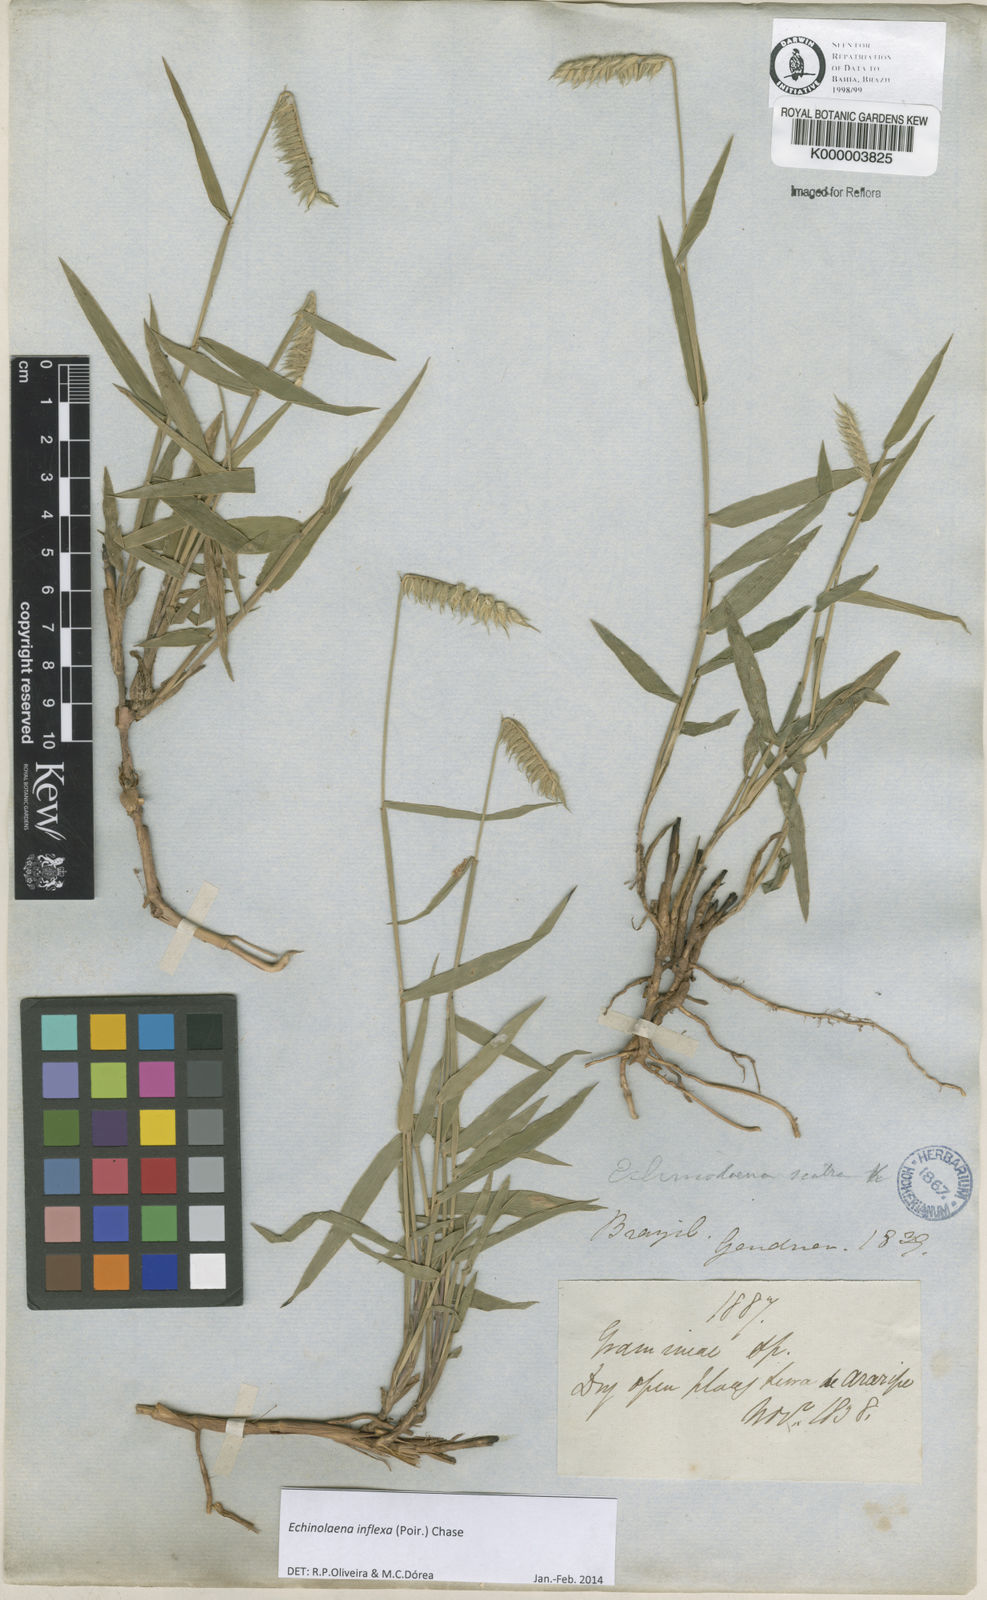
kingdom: Plantae
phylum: Tracheophyta
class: Liliopsida
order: Poales
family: Poaceae
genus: Echinolaena
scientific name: Echinolaena inflexa
